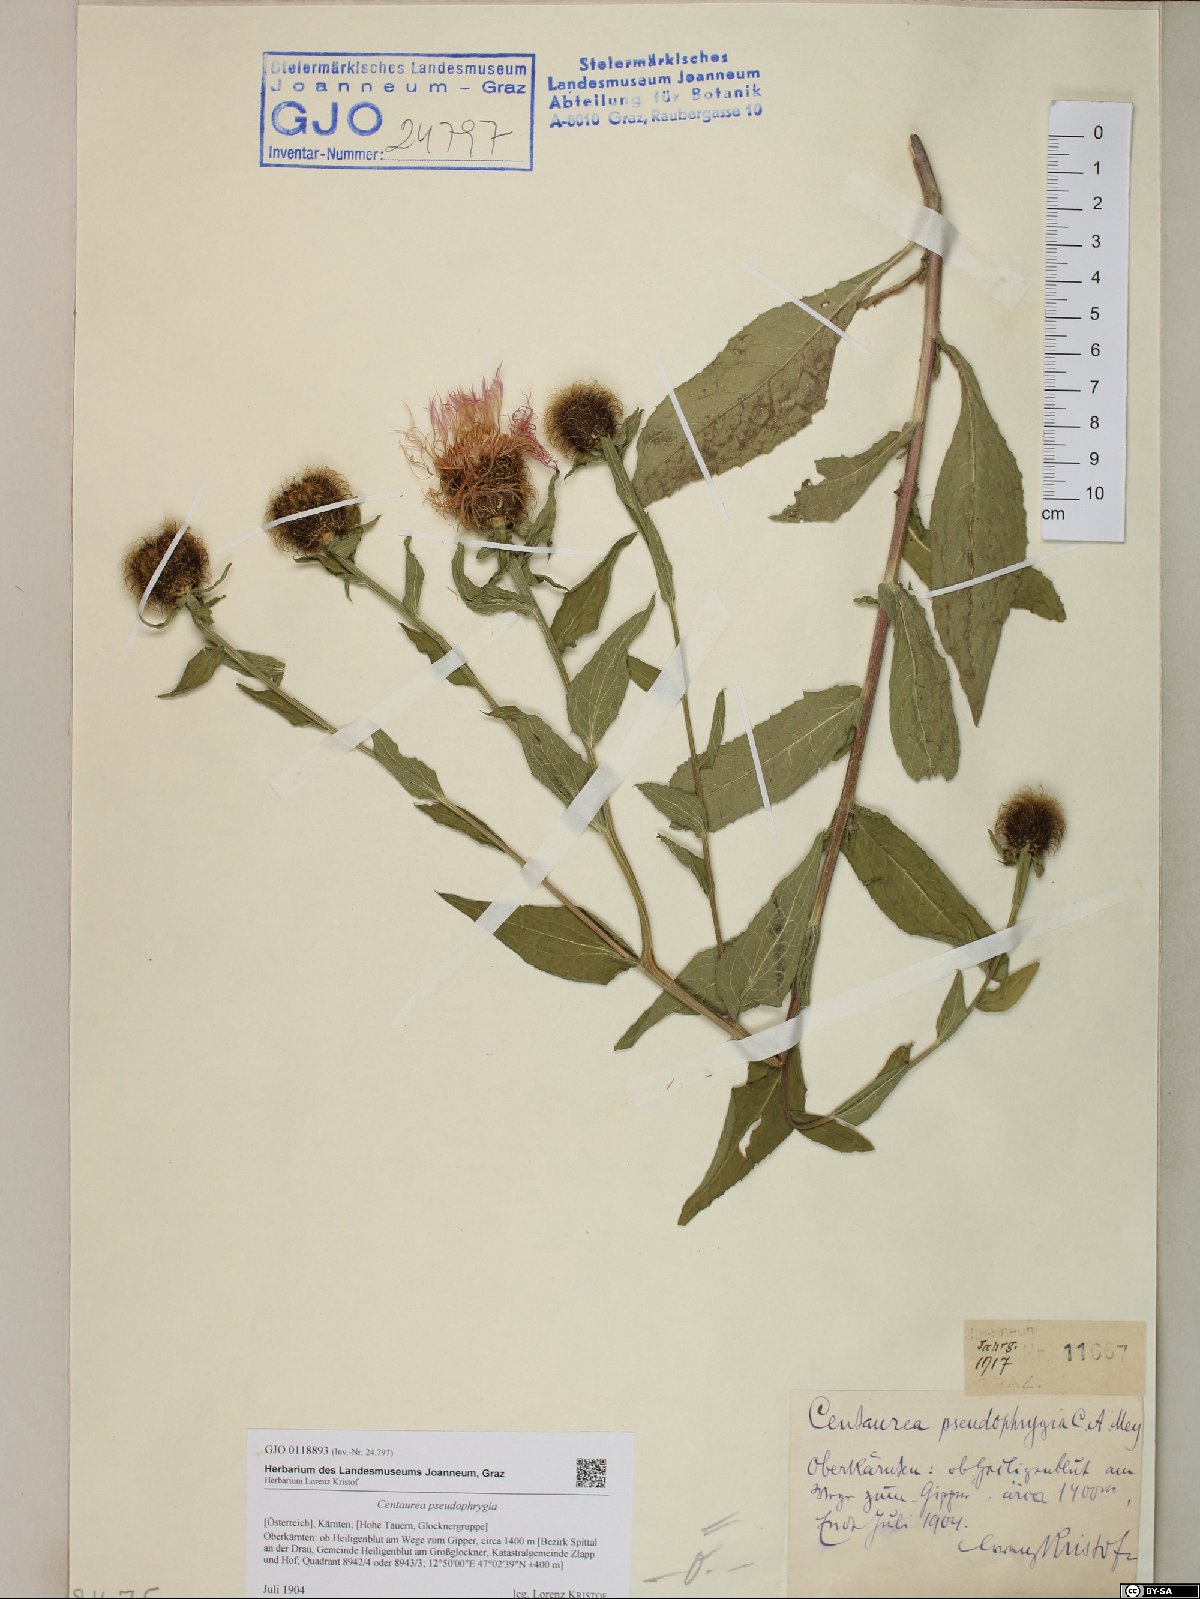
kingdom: Plantae
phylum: Tracheophyta
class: Magnoliopsida
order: Asterales
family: Asteraceae
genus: Centaurea
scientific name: Centaurea pseudophrygia
